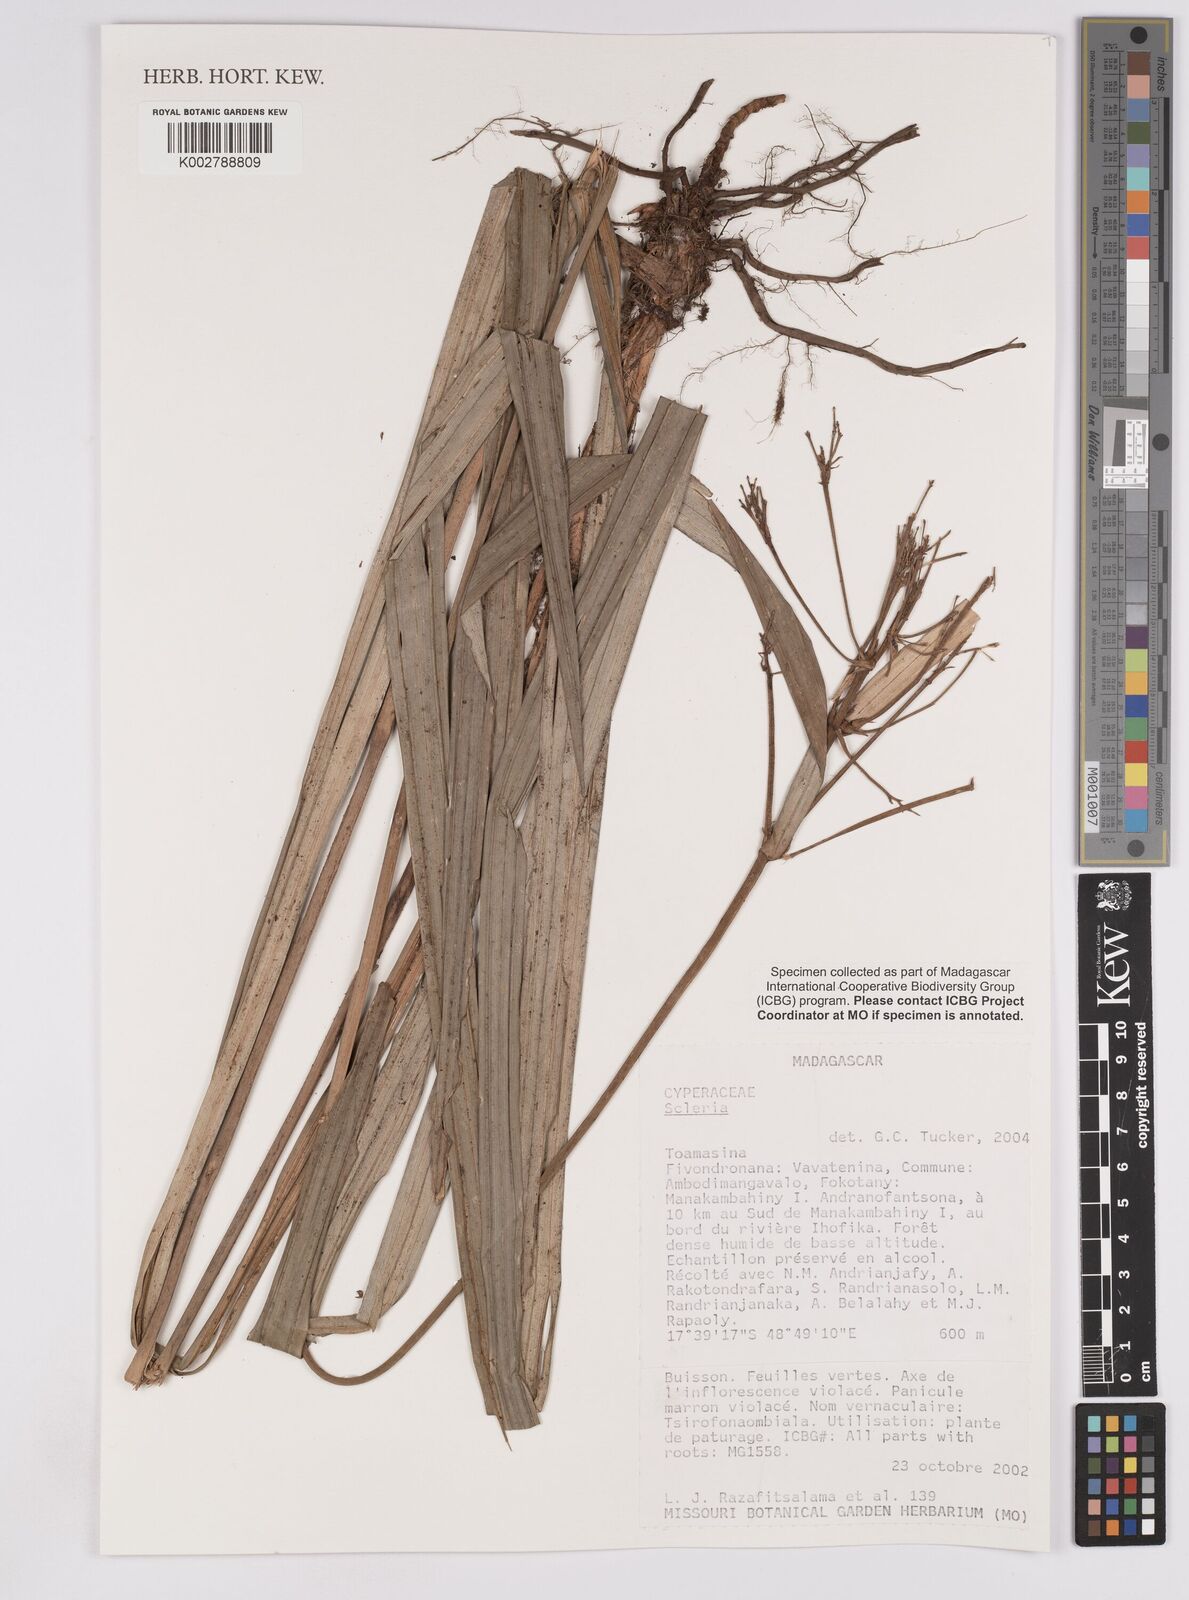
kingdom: Plantae
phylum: Tracheophyta
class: Liliopsida
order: Poales
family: Cyperaceae
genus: Scleria
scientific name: Scleria
